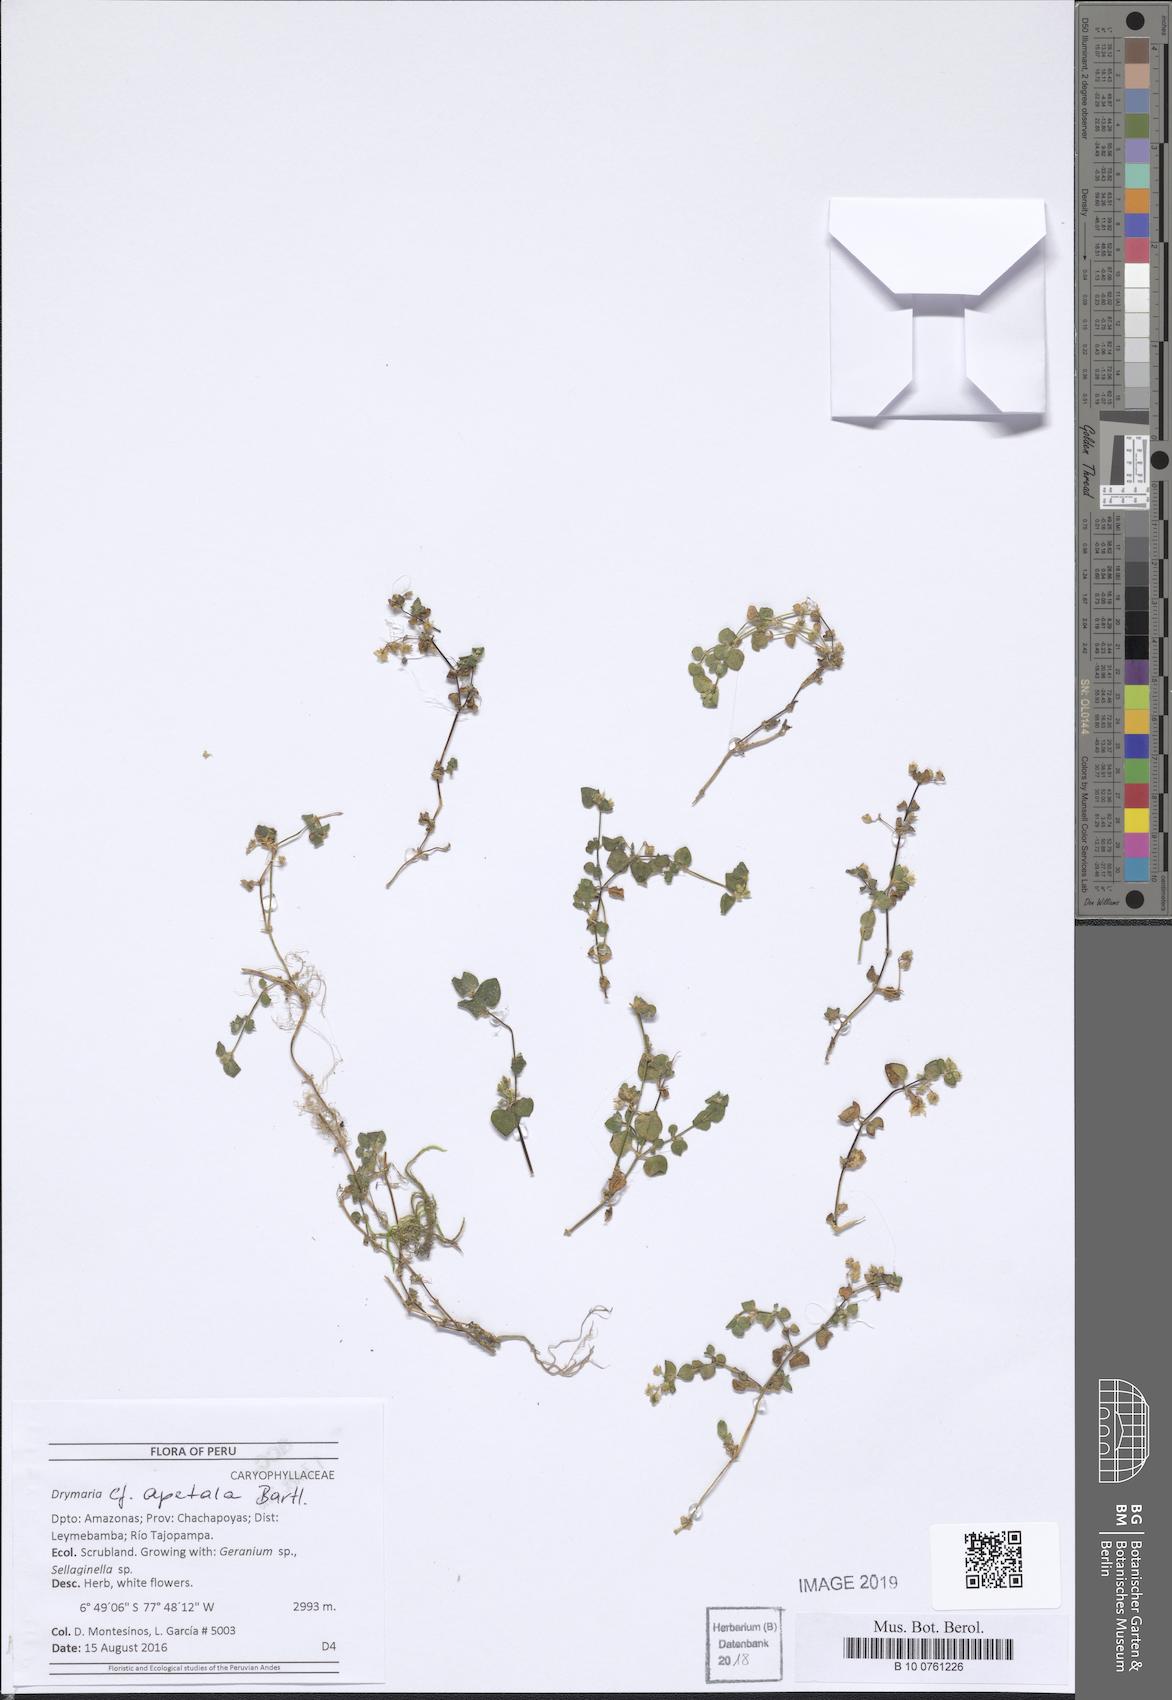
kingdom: Plantae
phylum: Tracheophyta
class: Magnoliopsida
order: Caryophyllales
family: Caryophyllaceae
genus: Drymaria
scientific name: Drymaria apetala
